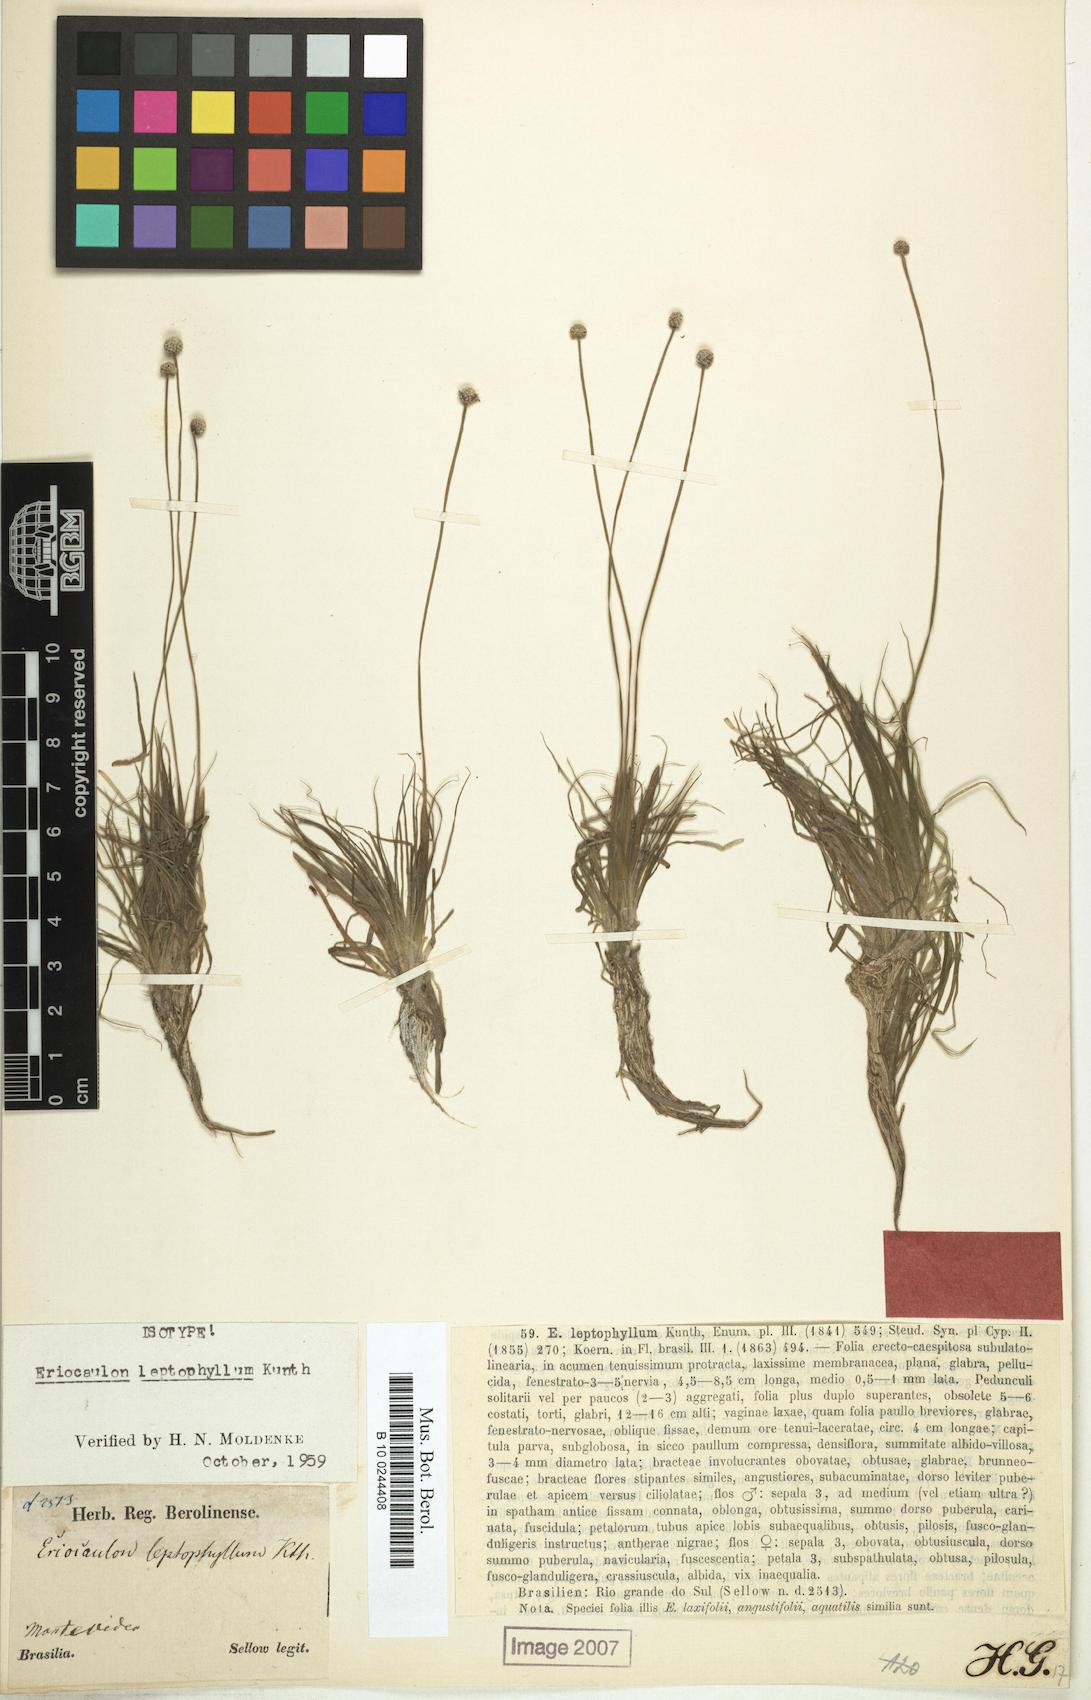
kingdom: Plantae
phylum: Tracheophyta
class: Liliopsida
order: Poales
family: Eriocaulaceae
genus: Eriocaulon
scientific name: Eriocaulon leptophyllum
